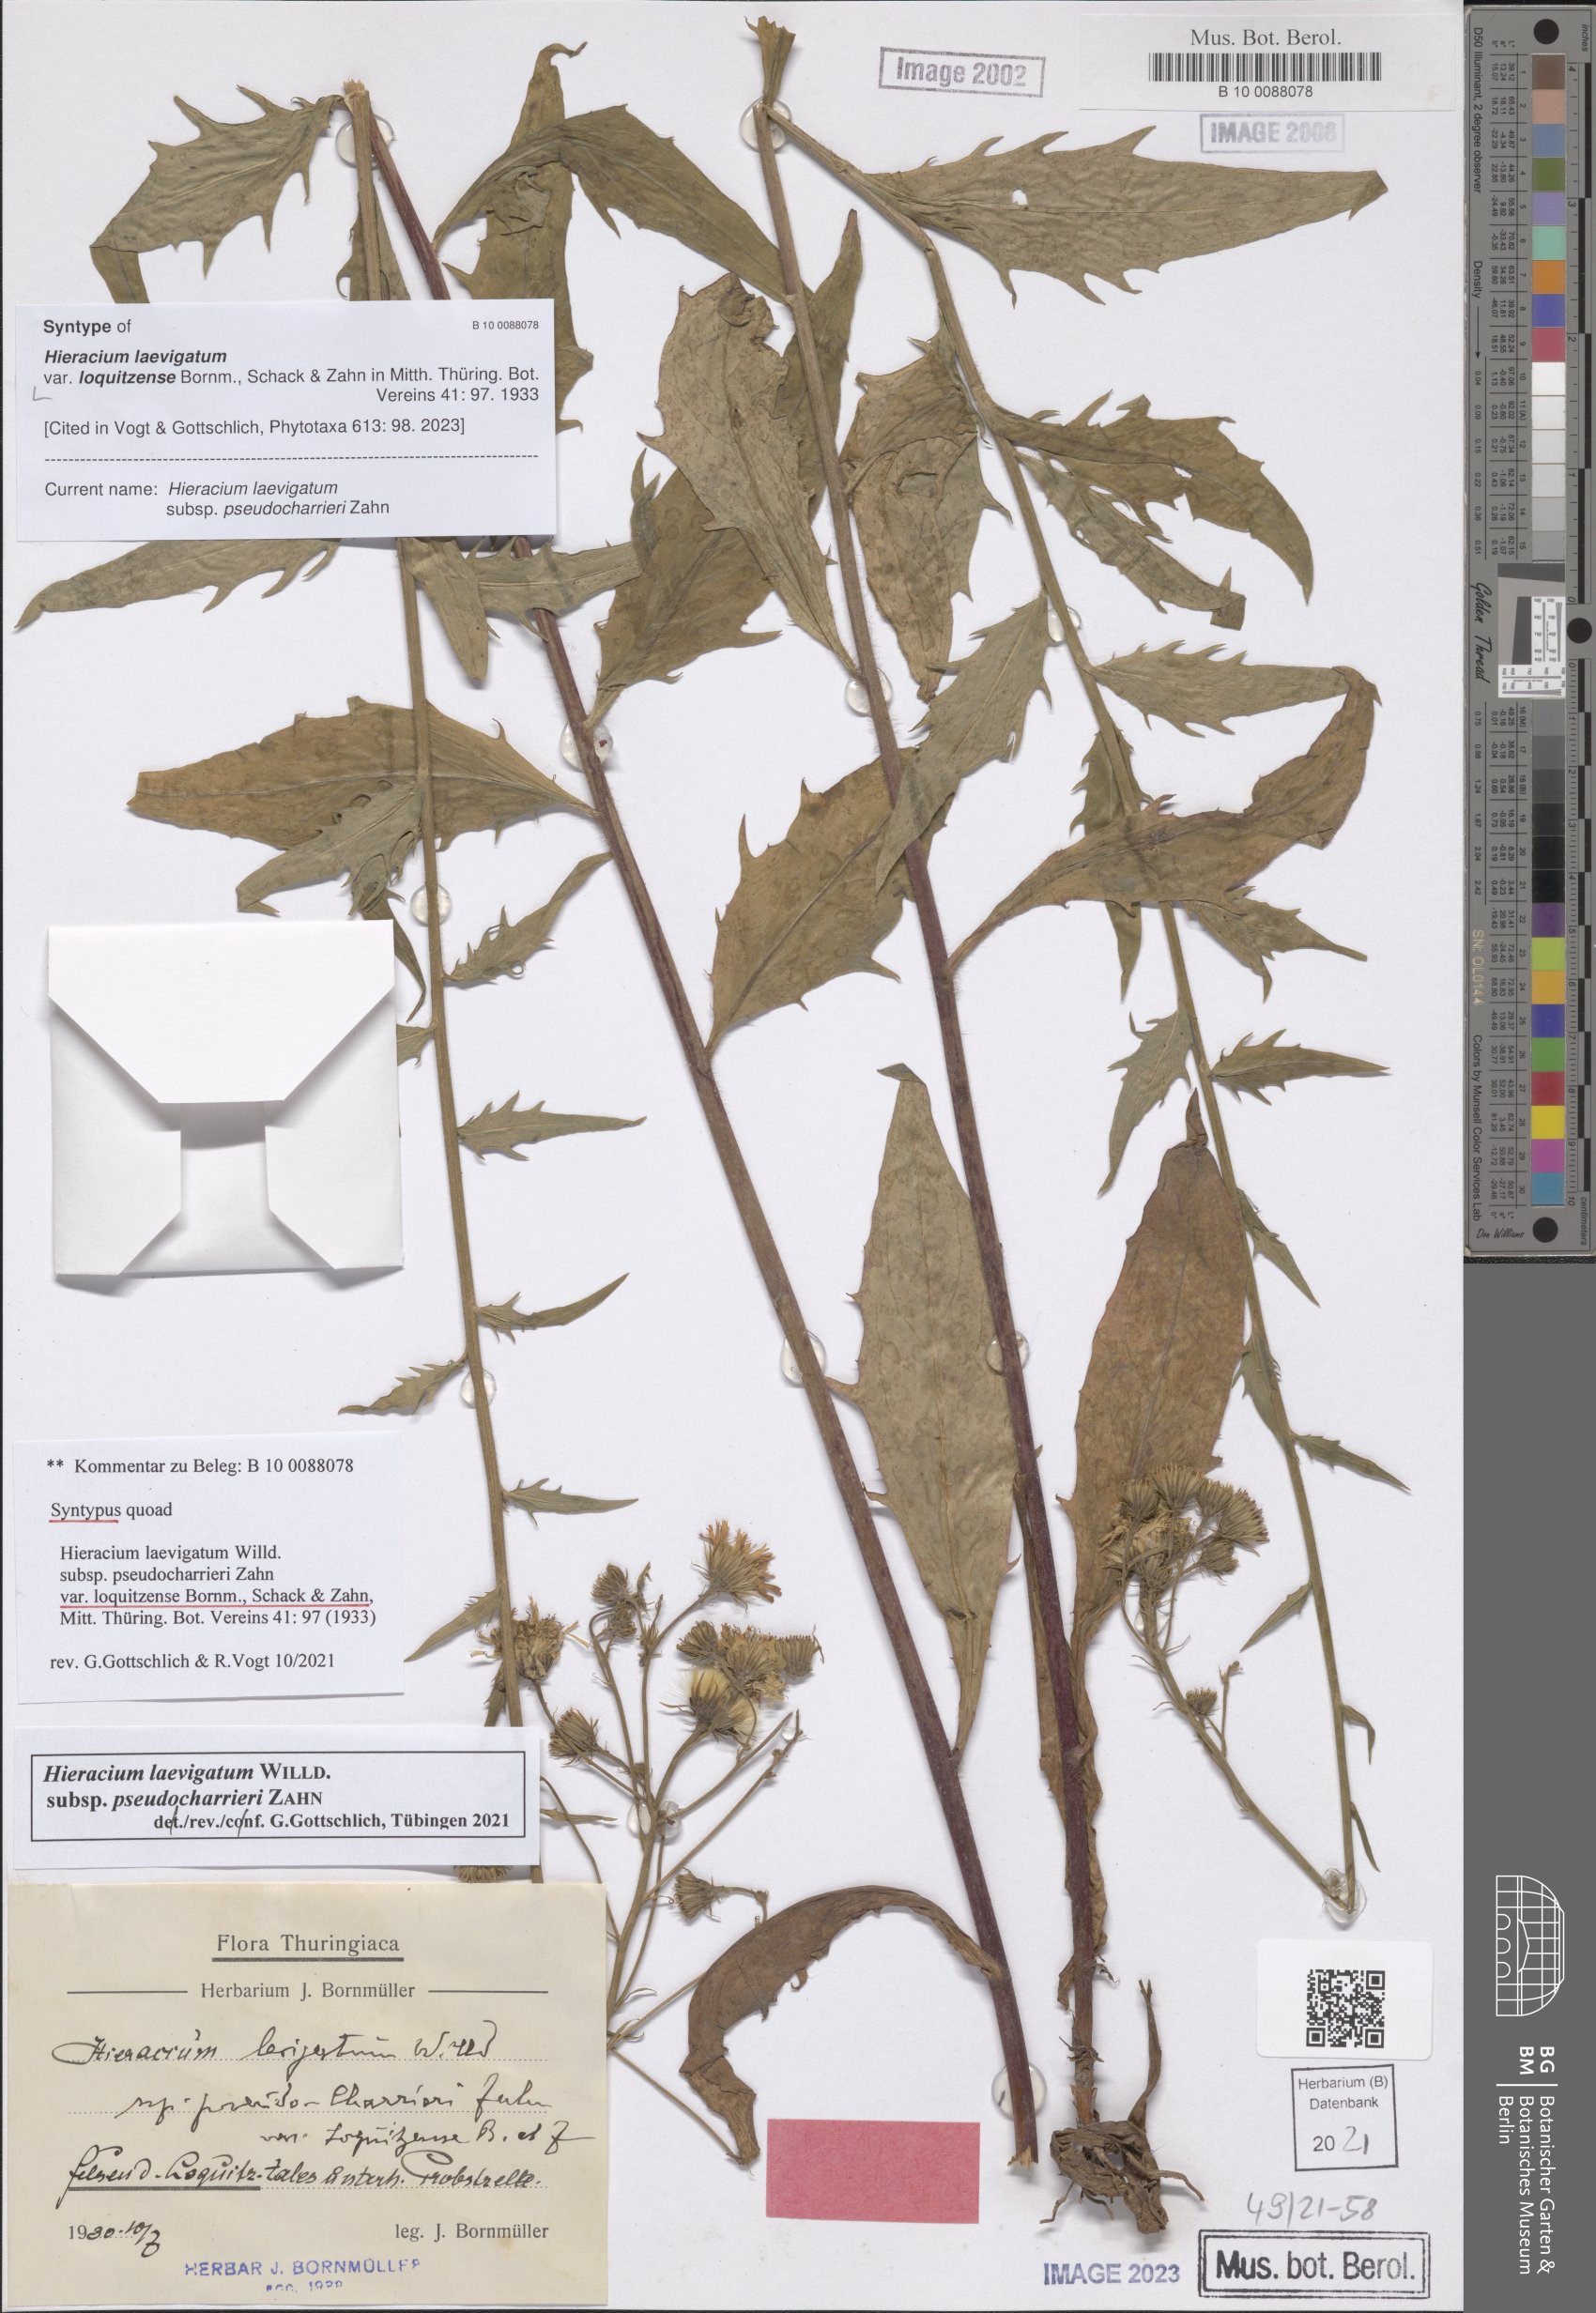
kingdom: Plantae
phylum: Tracheophyta
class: Magnoliopsida
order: Asterales
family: Asteraceae
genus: Hieracium
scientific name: Hieracium laevigatum
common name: Smooth hawkweed
